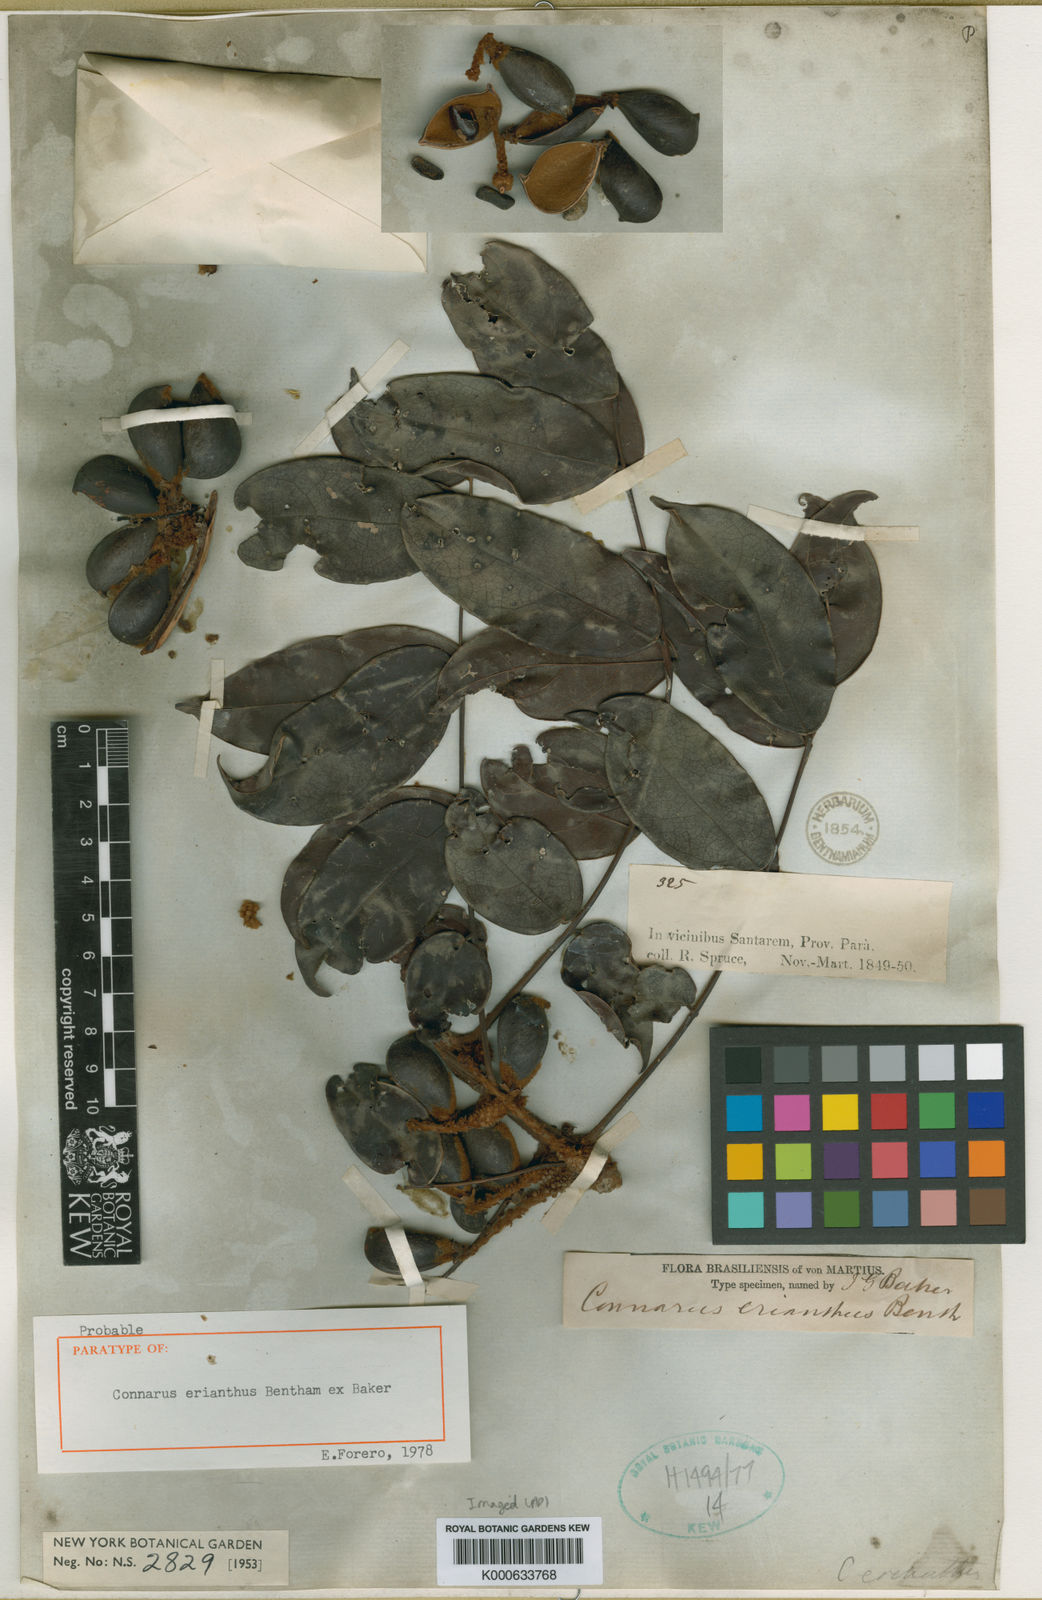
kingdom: Plantae
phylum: Tracheophyta
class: Magnoliopsida
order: Oxalidales
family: Connaraceae
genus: Connarus
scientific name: Connarus erianthus
